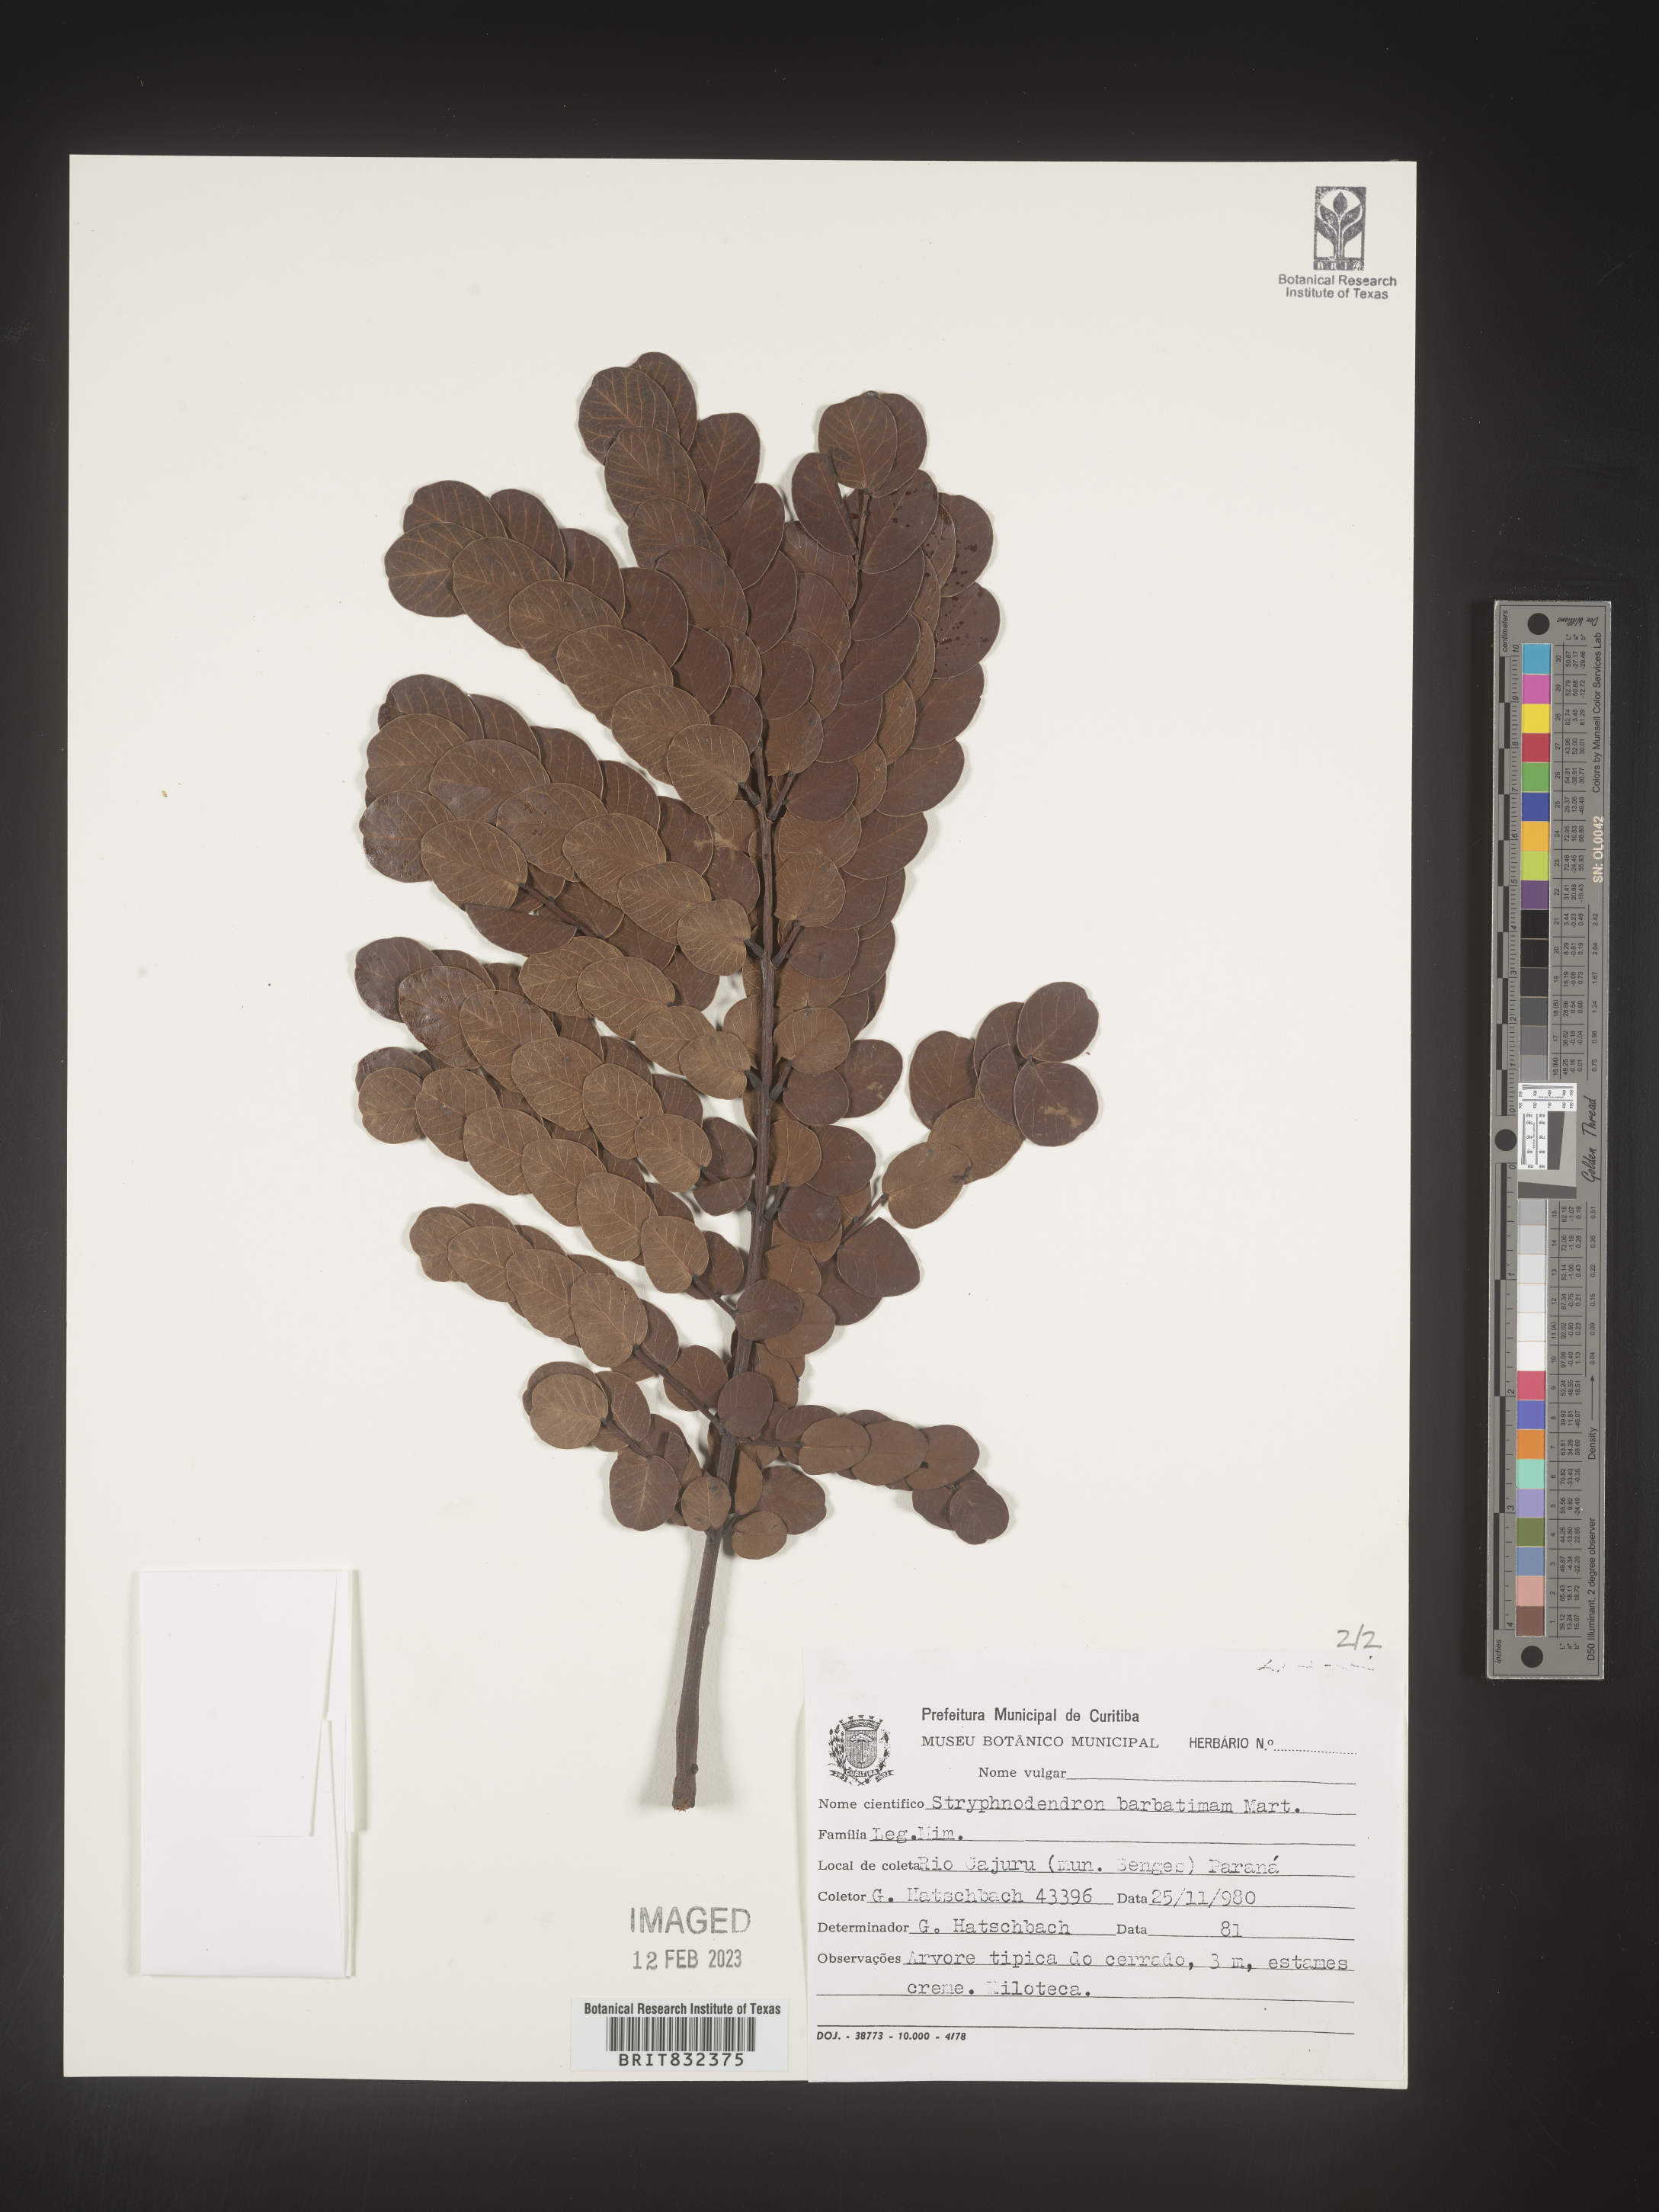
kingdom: Plantae
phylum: Tracheophyta
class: Magnoliopsida
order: Fabales
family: Fabaceae
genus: Stryphnodendron
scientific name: Stryphnodendron
